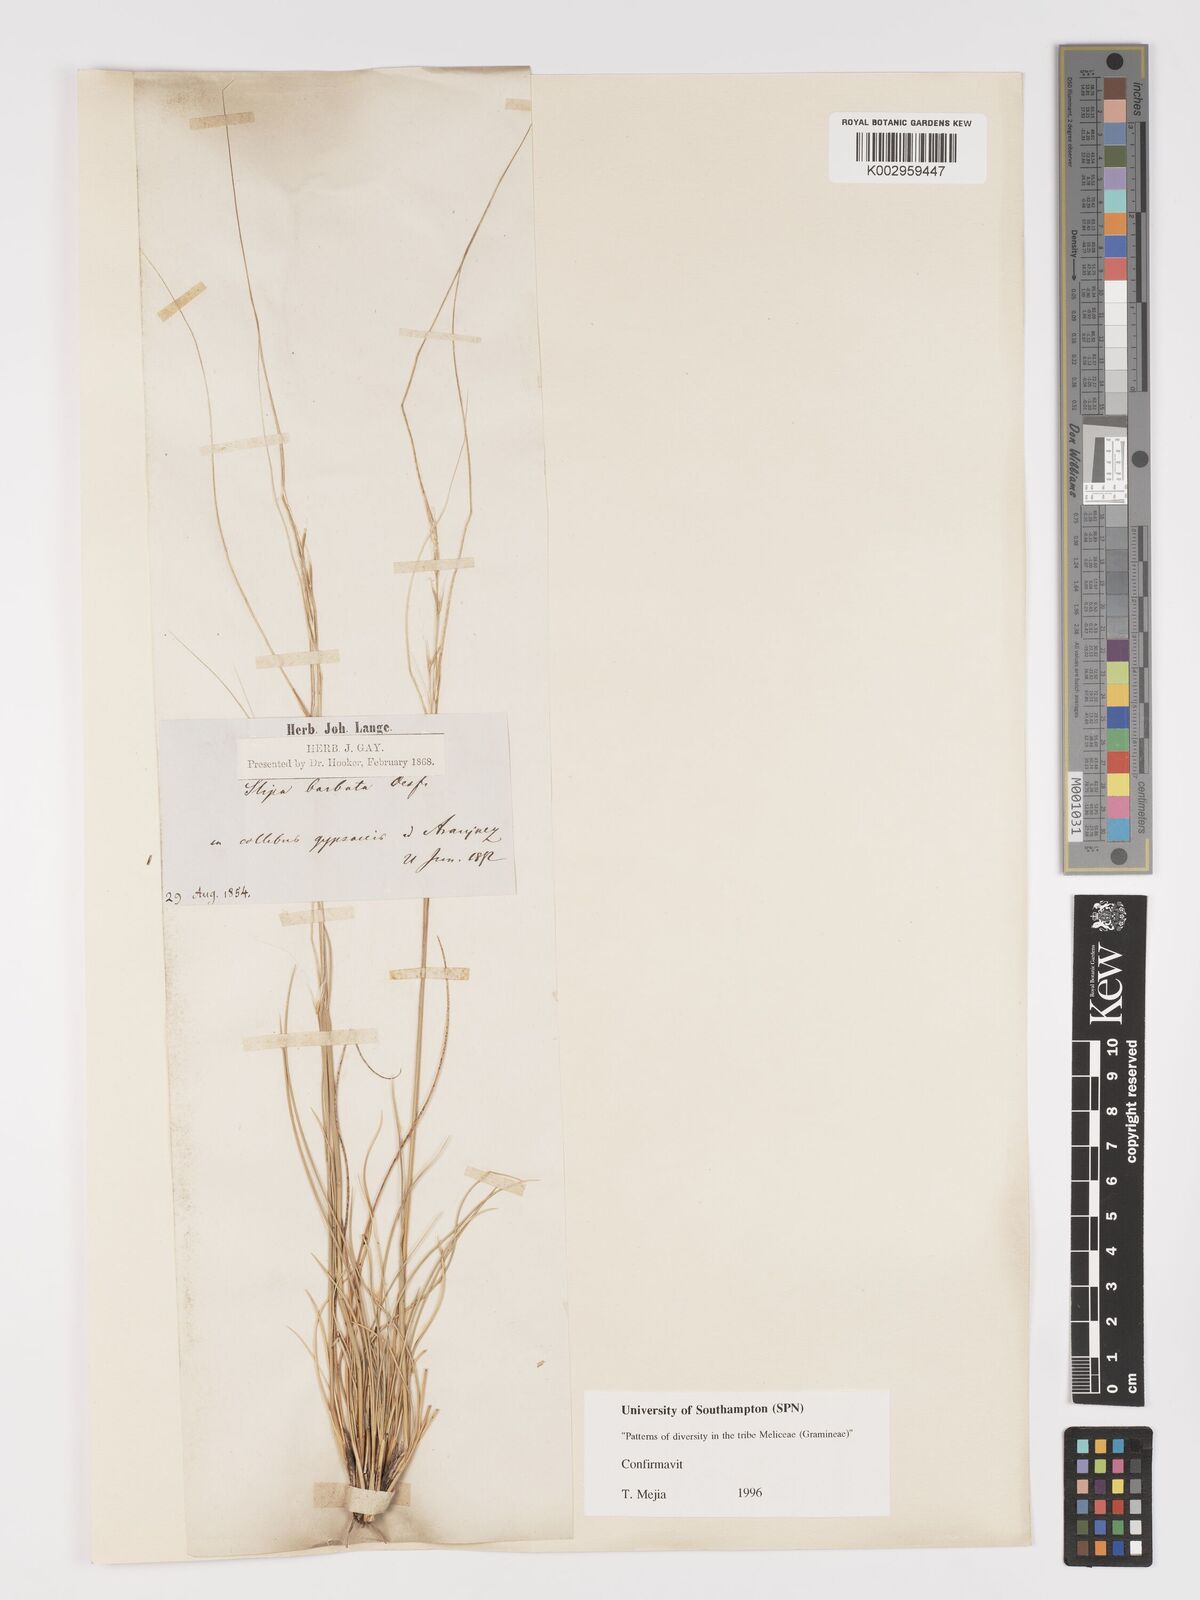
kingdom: Plantae
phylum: Tracheophyta
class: Liliopsida
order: Poales
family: Poaceae
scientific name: Poaceae
